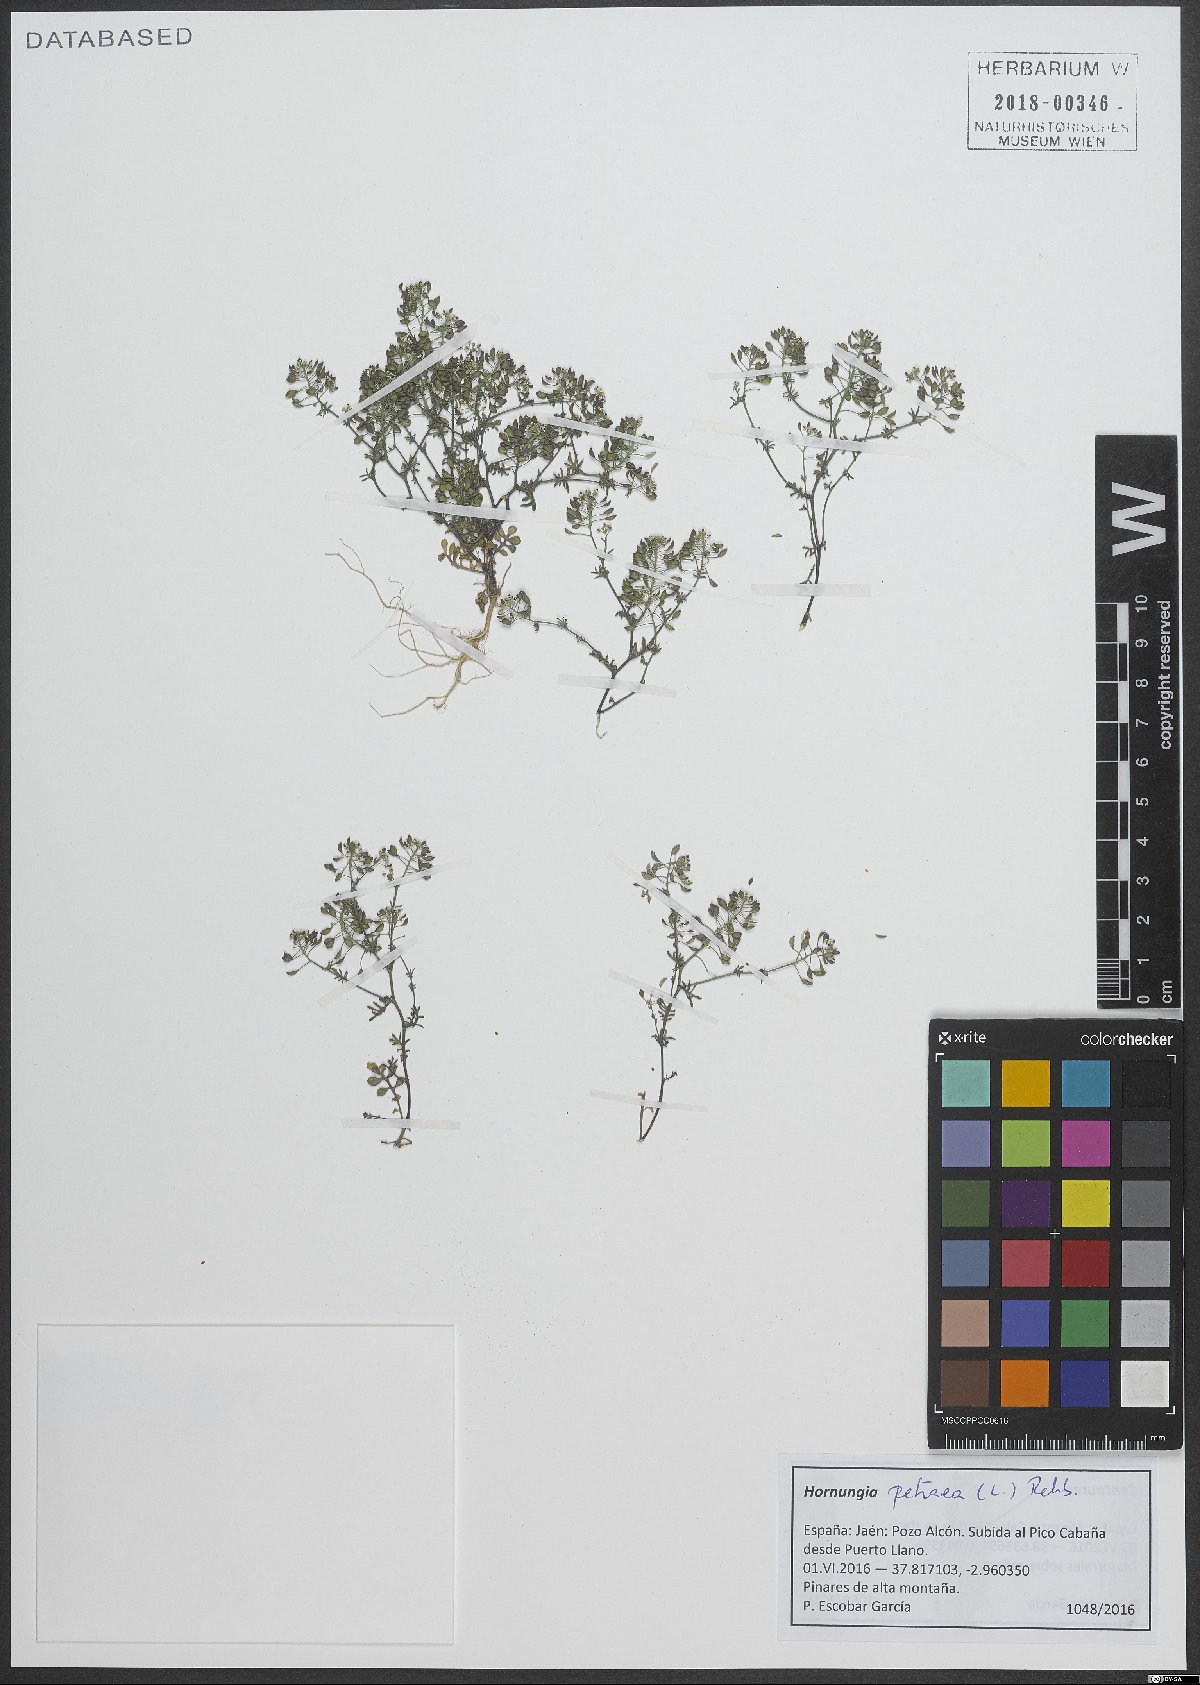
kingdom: Plantae
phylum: Tracheophyta
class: Magnoliopsida
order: Brassicales
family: Brassicaceae
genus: Hornungia
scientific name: Hornungia petraea
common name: Hutchinsia
